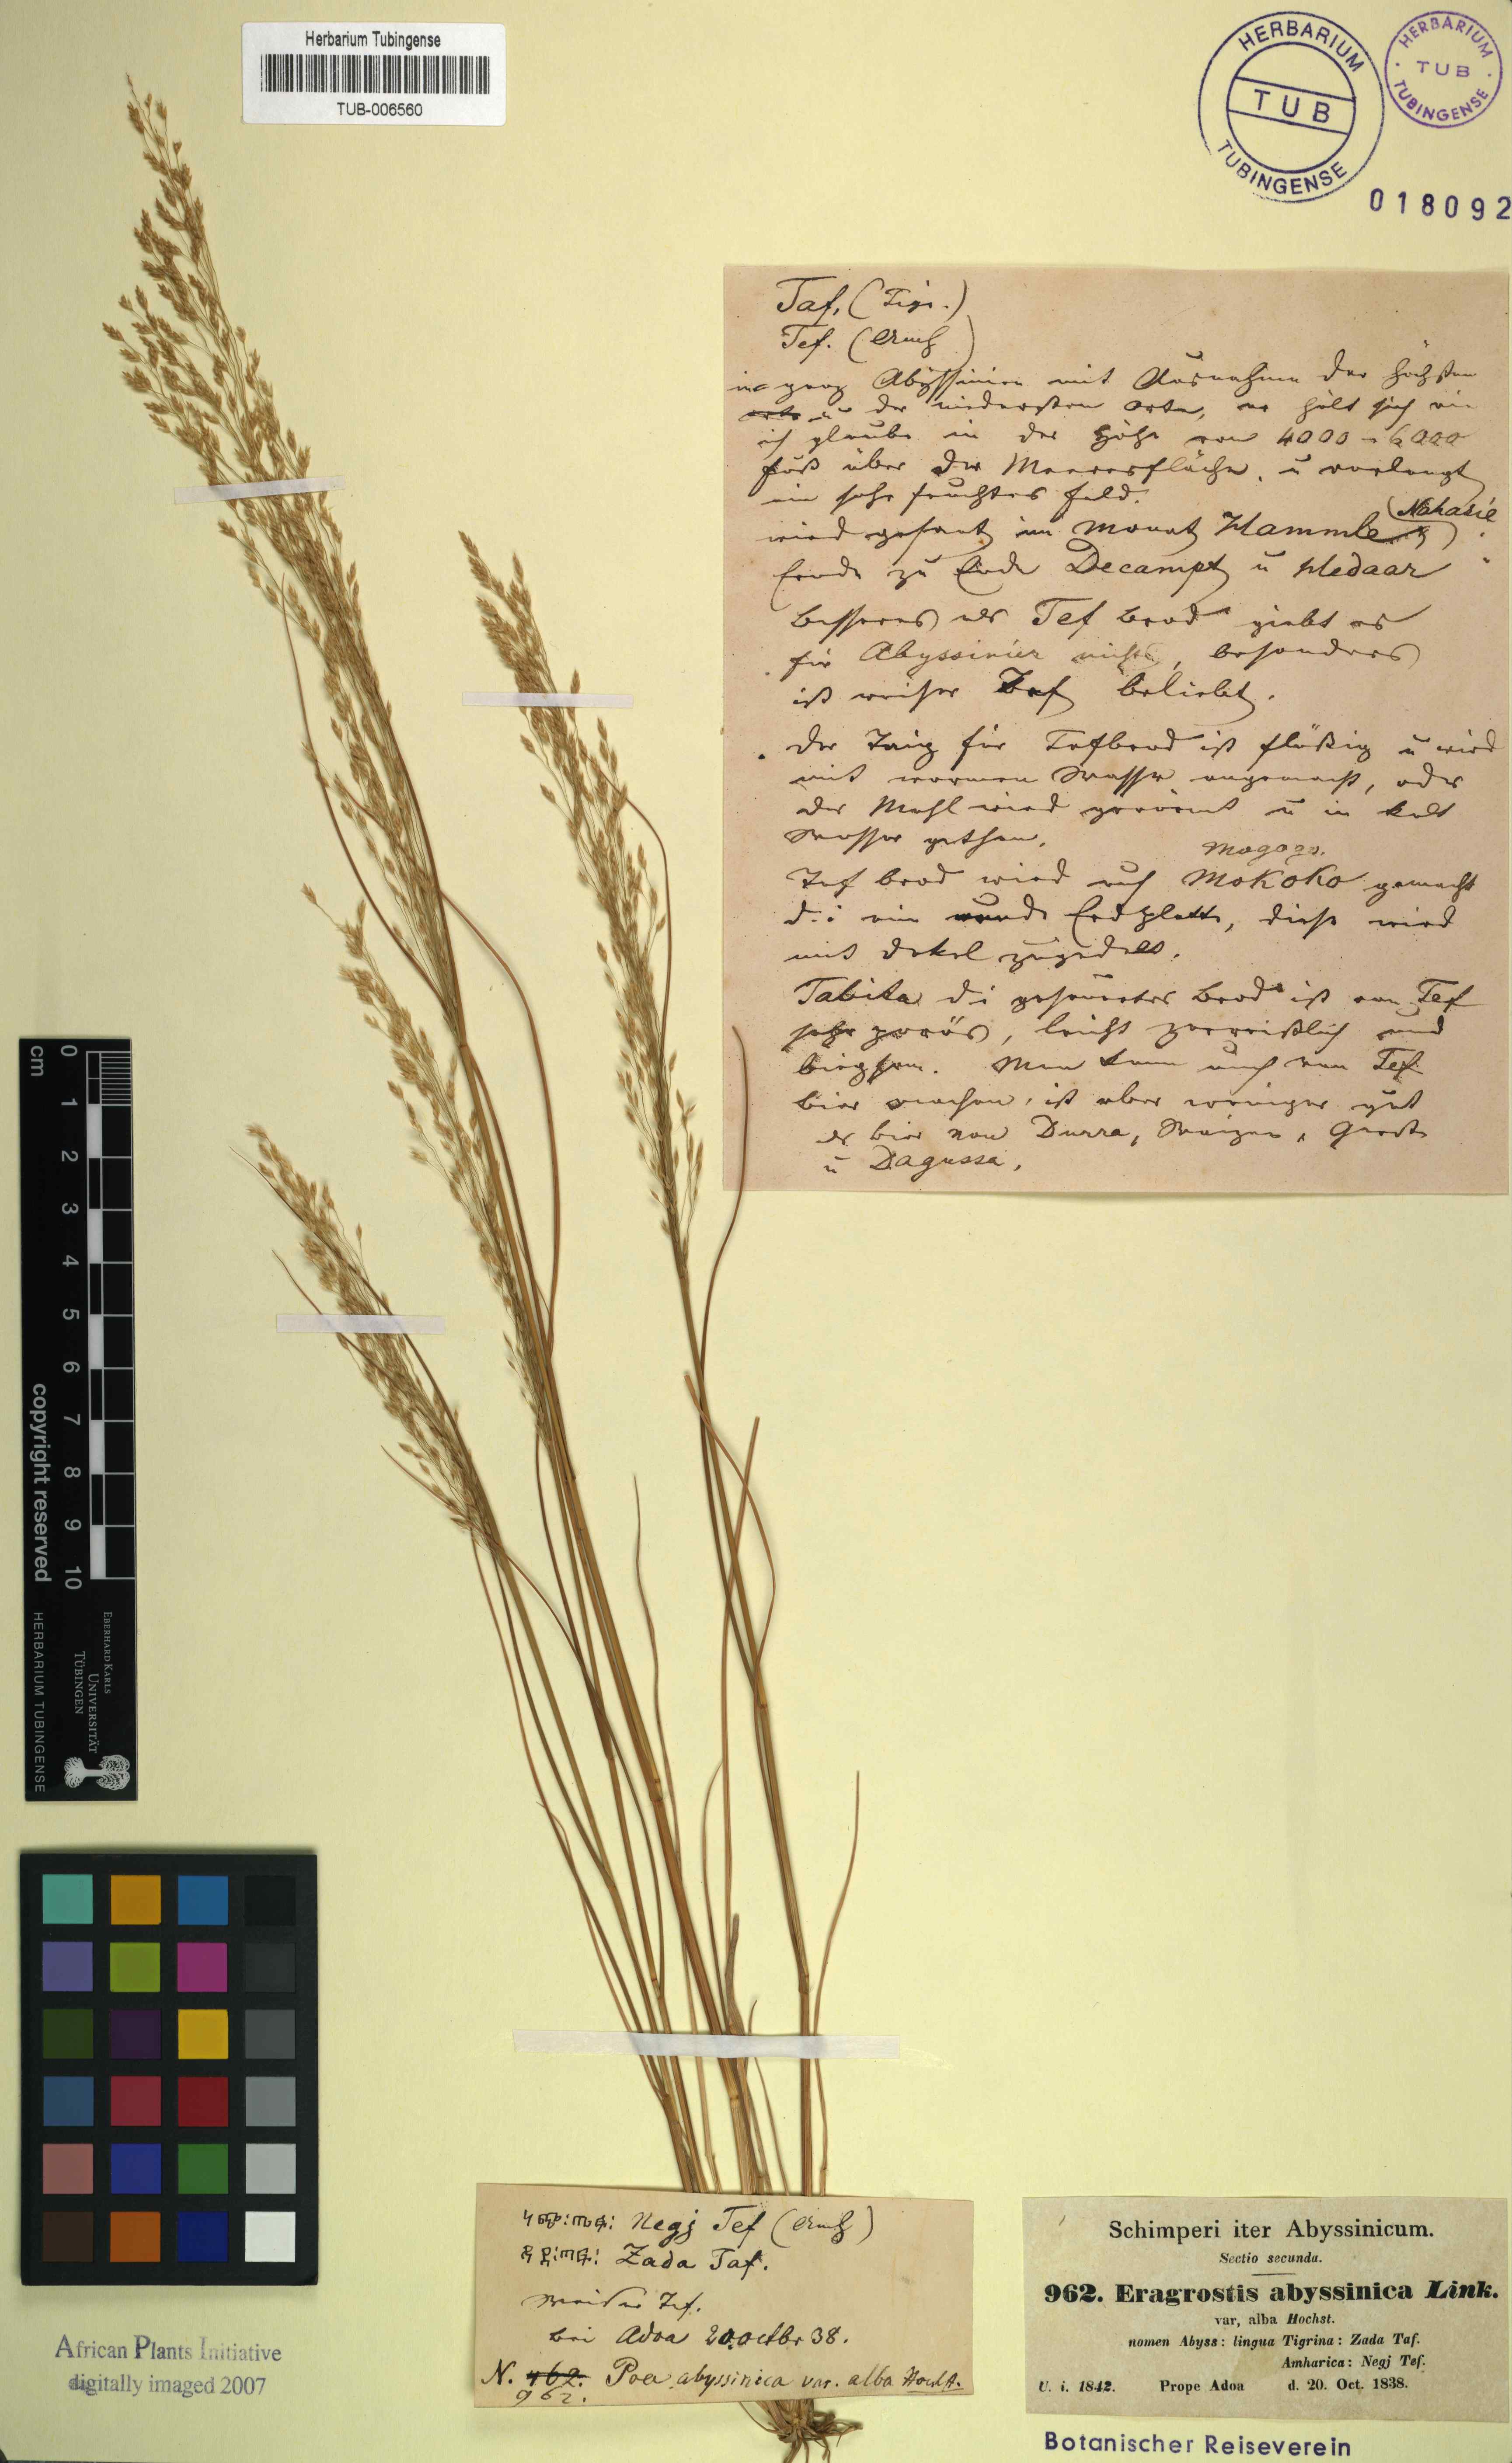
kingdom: Plantae
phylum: Tracheophyta
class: Liliopsida
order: Poales
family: Poaceae
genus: Eragrostis
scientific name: Eragrostis tef
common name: Teff
